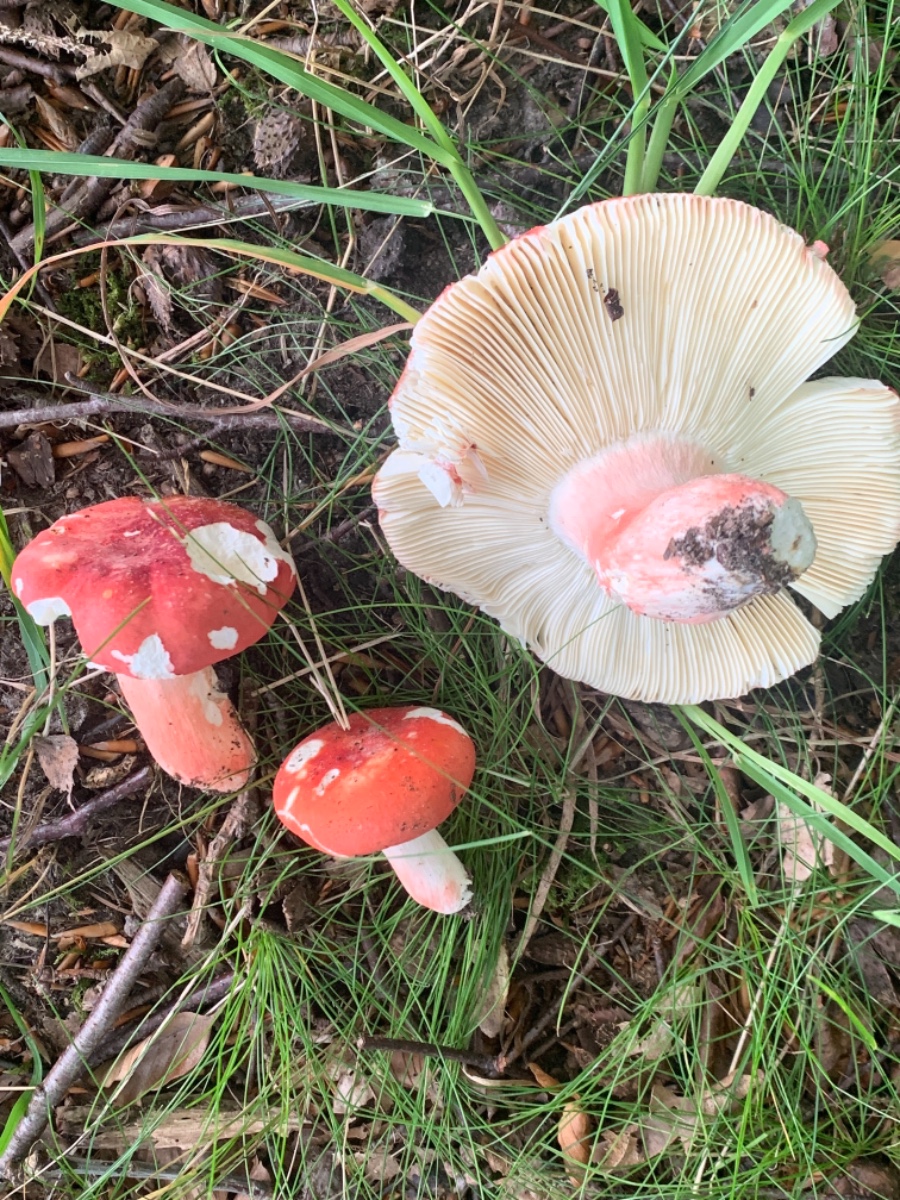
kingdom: Fungi
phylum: Basidiomycota
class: Agaricomycetes
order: Russulales
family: Russulaceae
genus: Russula
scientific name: Russula rosea
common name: fastkødet skørhat
